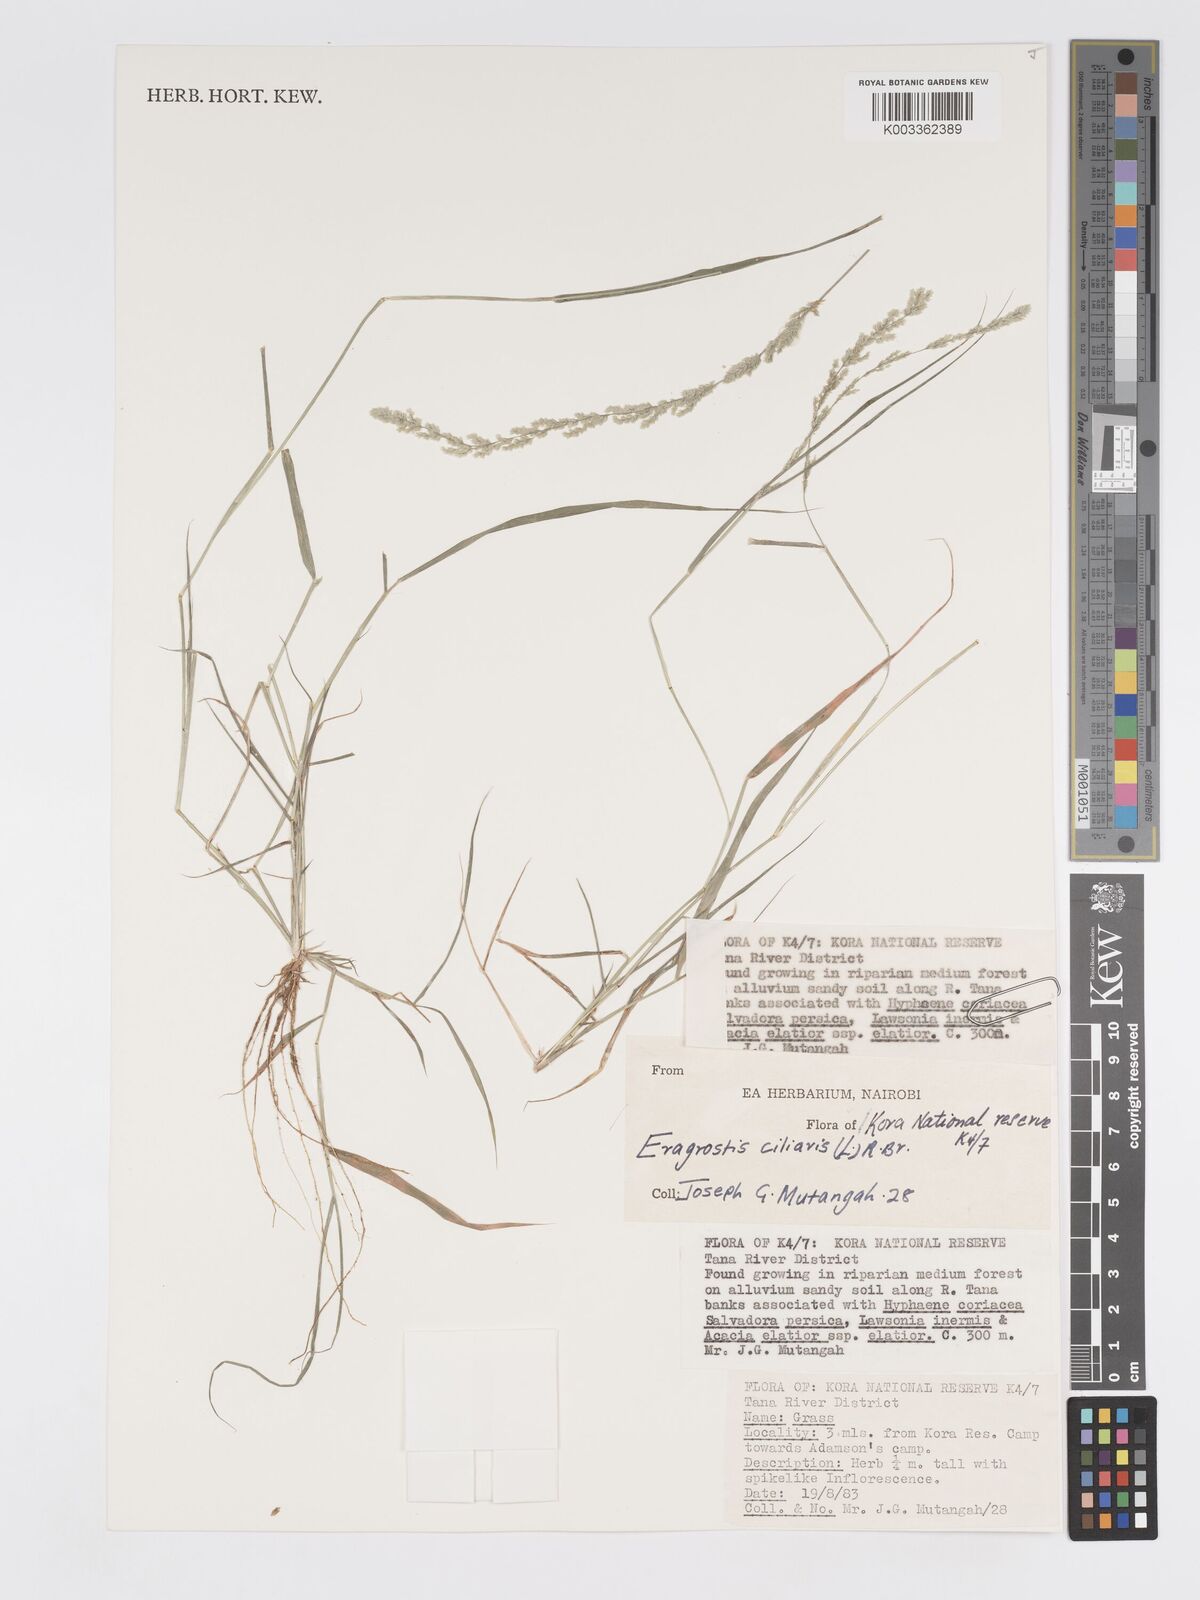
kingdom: Plantae
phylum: Tracheophyta
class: Liliopsida
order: Poales
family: Poaceae
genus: Eragrostis
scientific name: Eragrostis ciliaris
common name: Gophertail lovegrass
